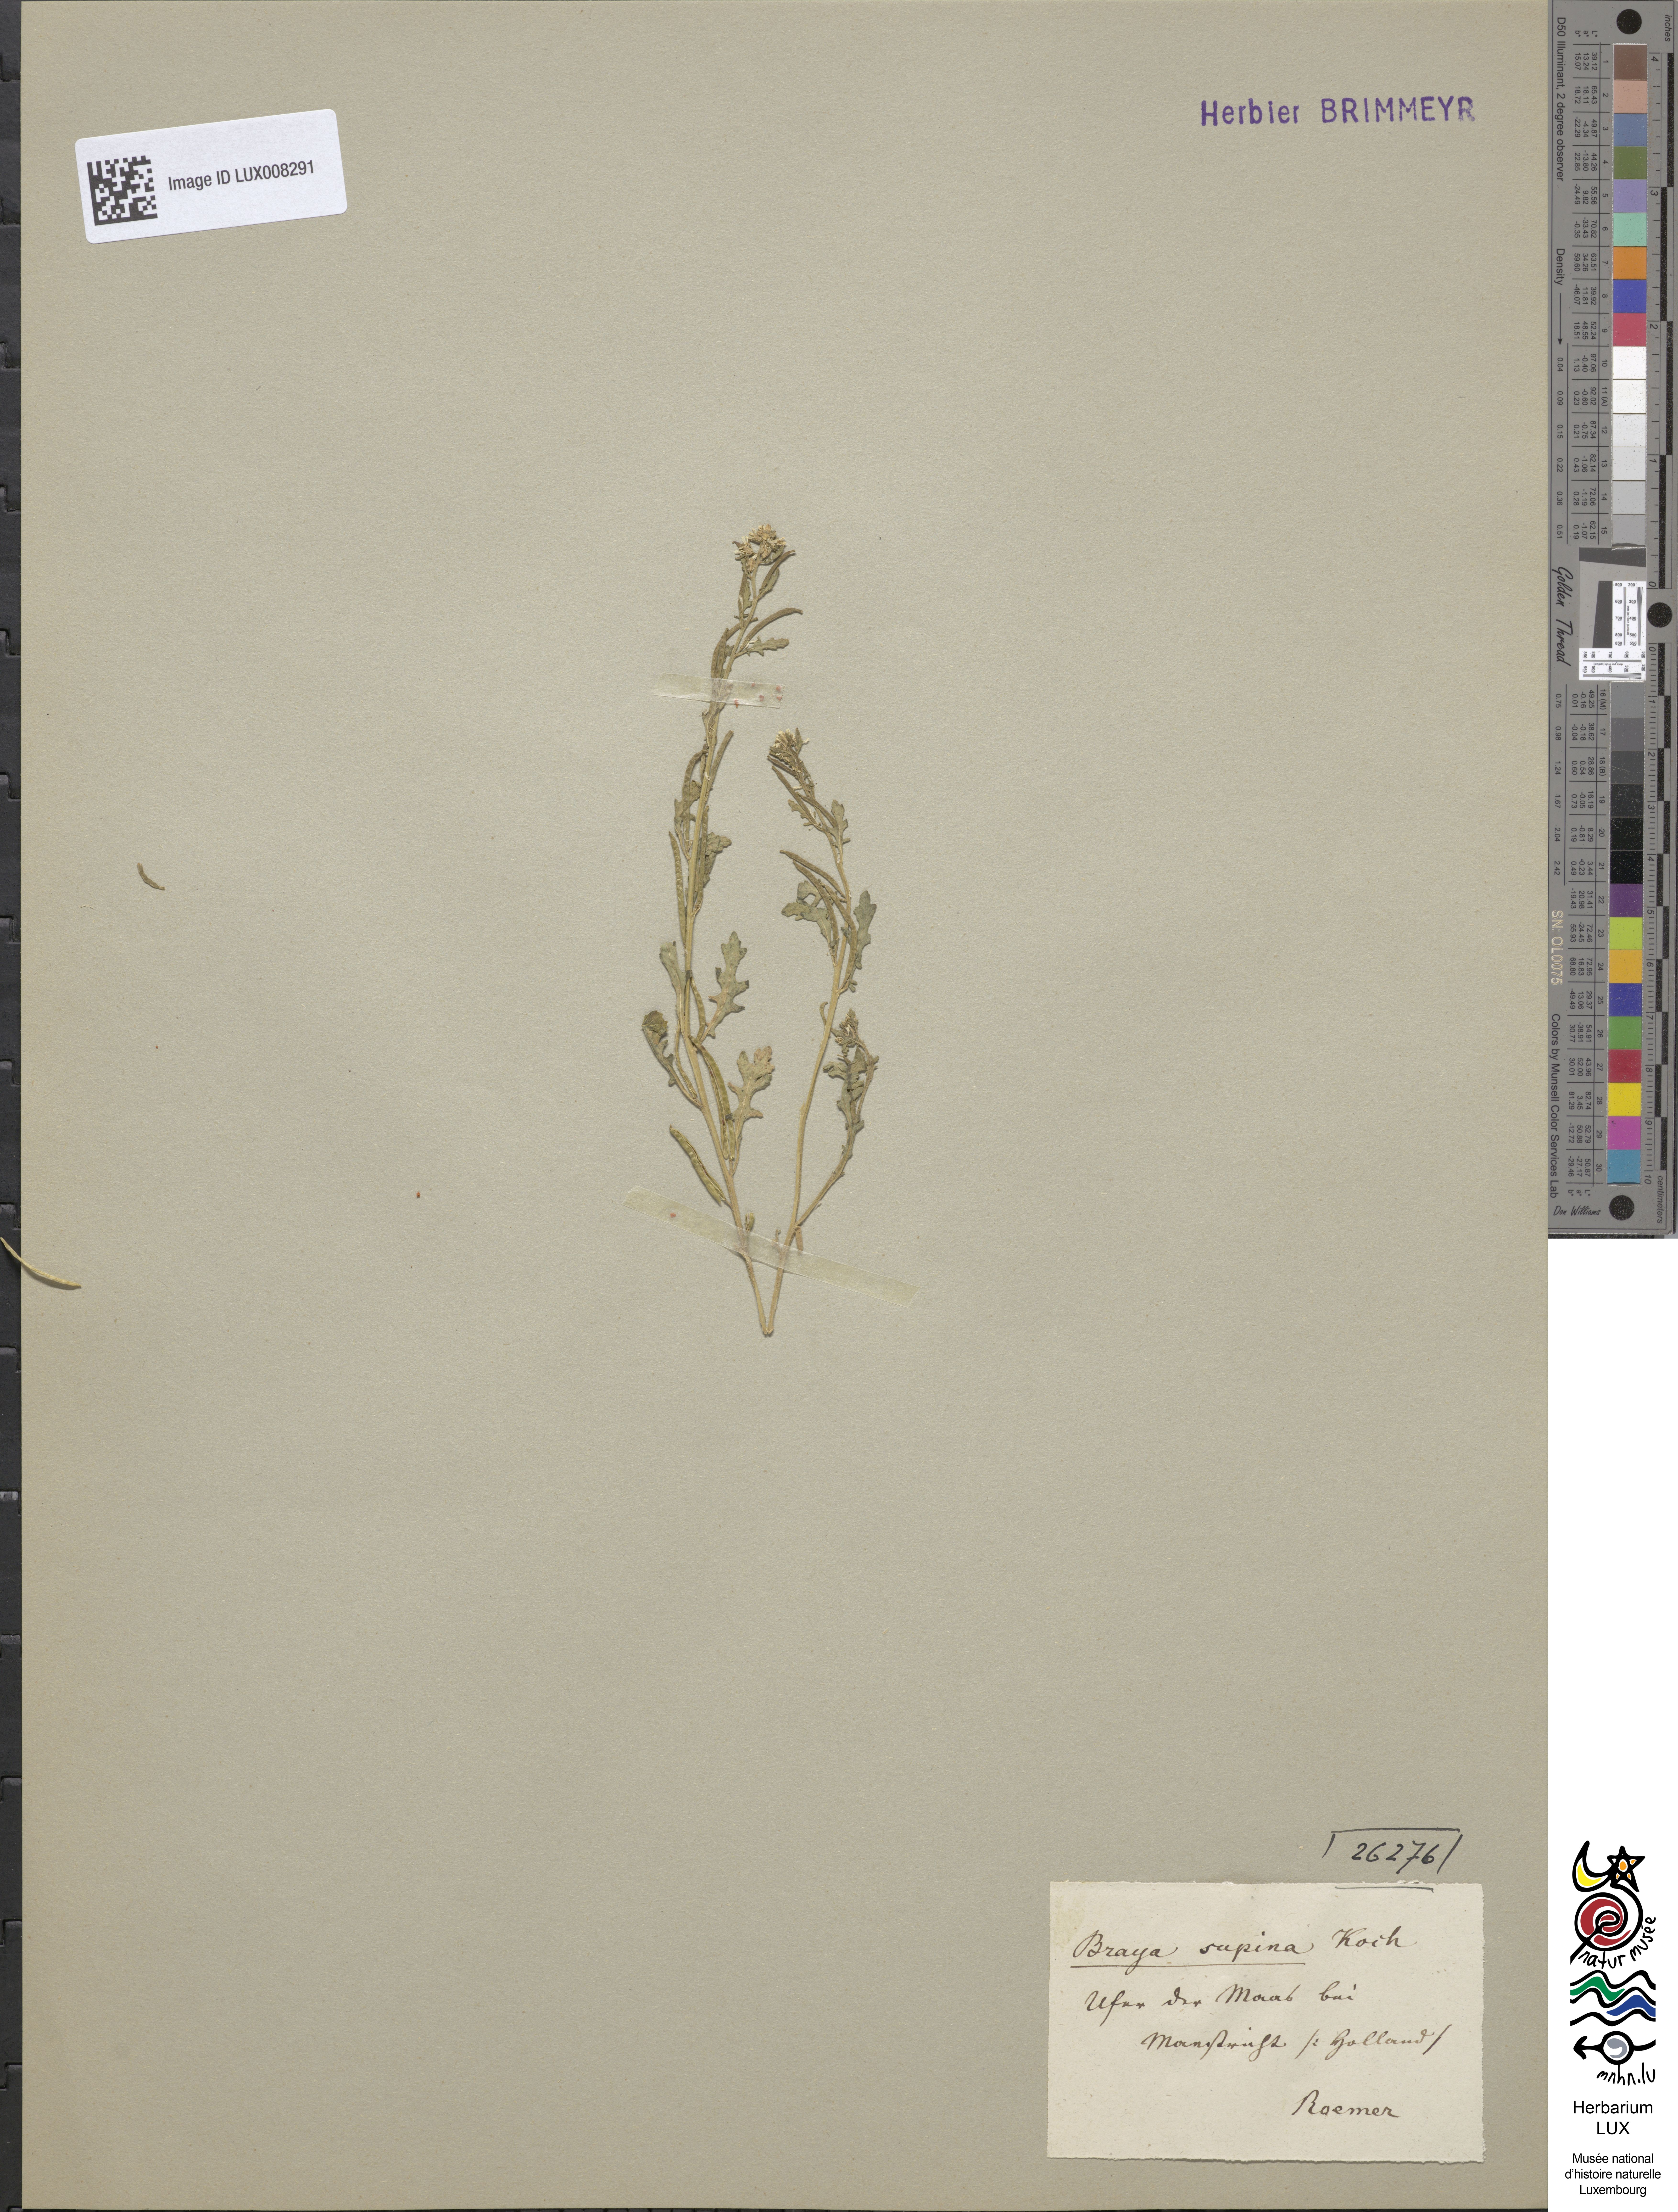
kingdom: Plantae
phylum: Tracheophyta
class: Magnoliopsida
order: Brassicales
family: Brassicaceae
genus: Erucastrum
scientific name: Erucastrum supinum
